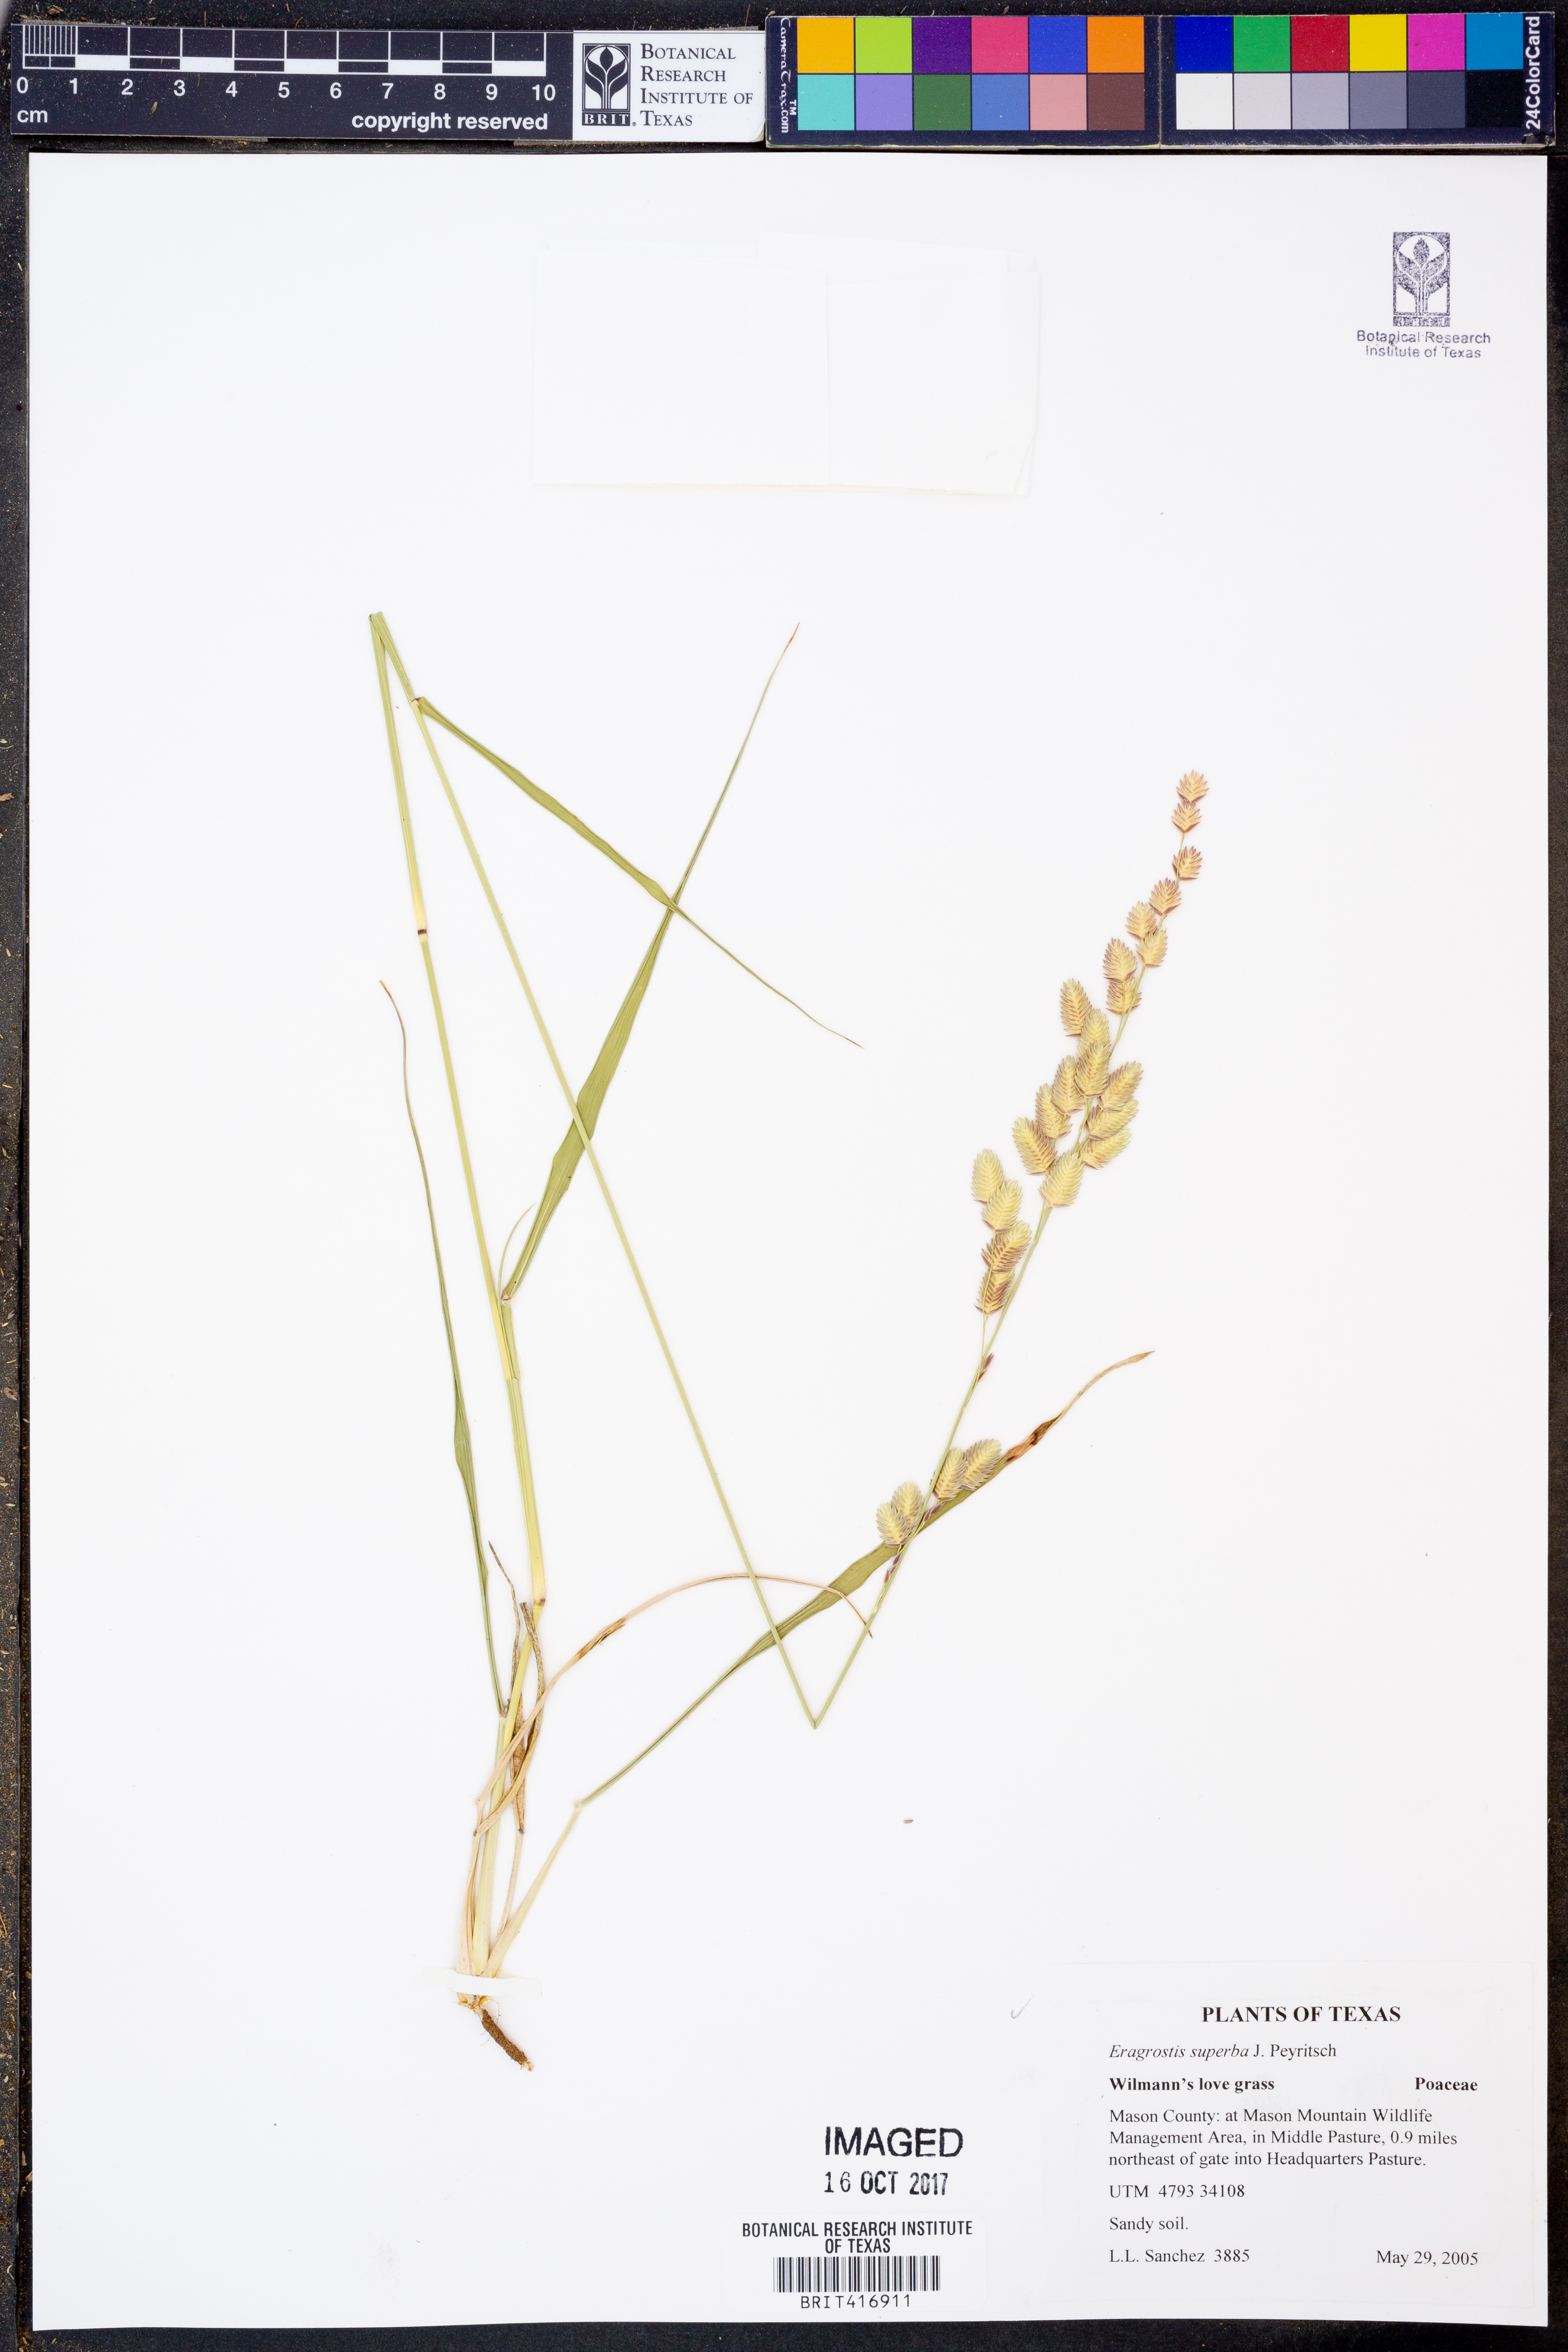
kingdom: Plantae
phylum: Tracheophyta
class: Liliopsida
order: Poales
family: Poaceae
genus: Eragrostis
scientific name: Eragrostis superba
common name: Wilman lovegrass
